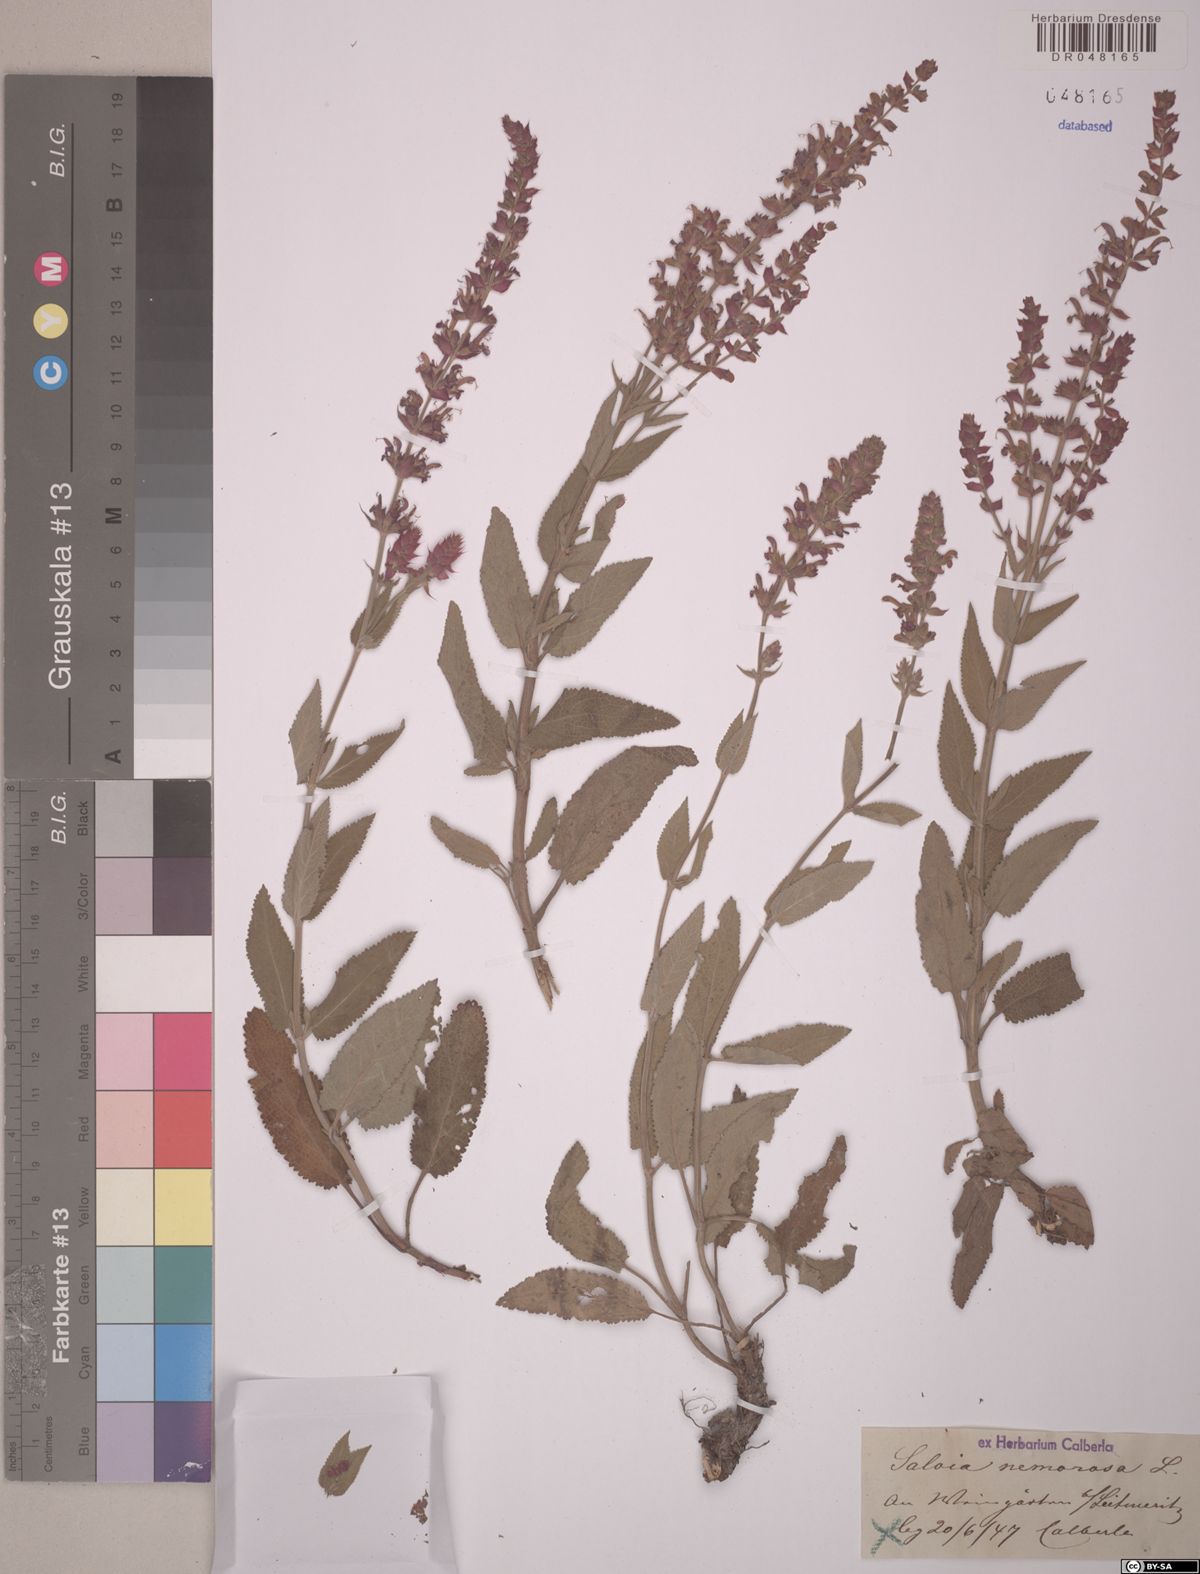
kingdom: Plantae
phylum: Tracheophyta
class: Magnoliopsida
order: Lamiales
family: Lamiaceae
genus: Salvia
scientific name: Salvia nemorosa
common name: Balkan clary
